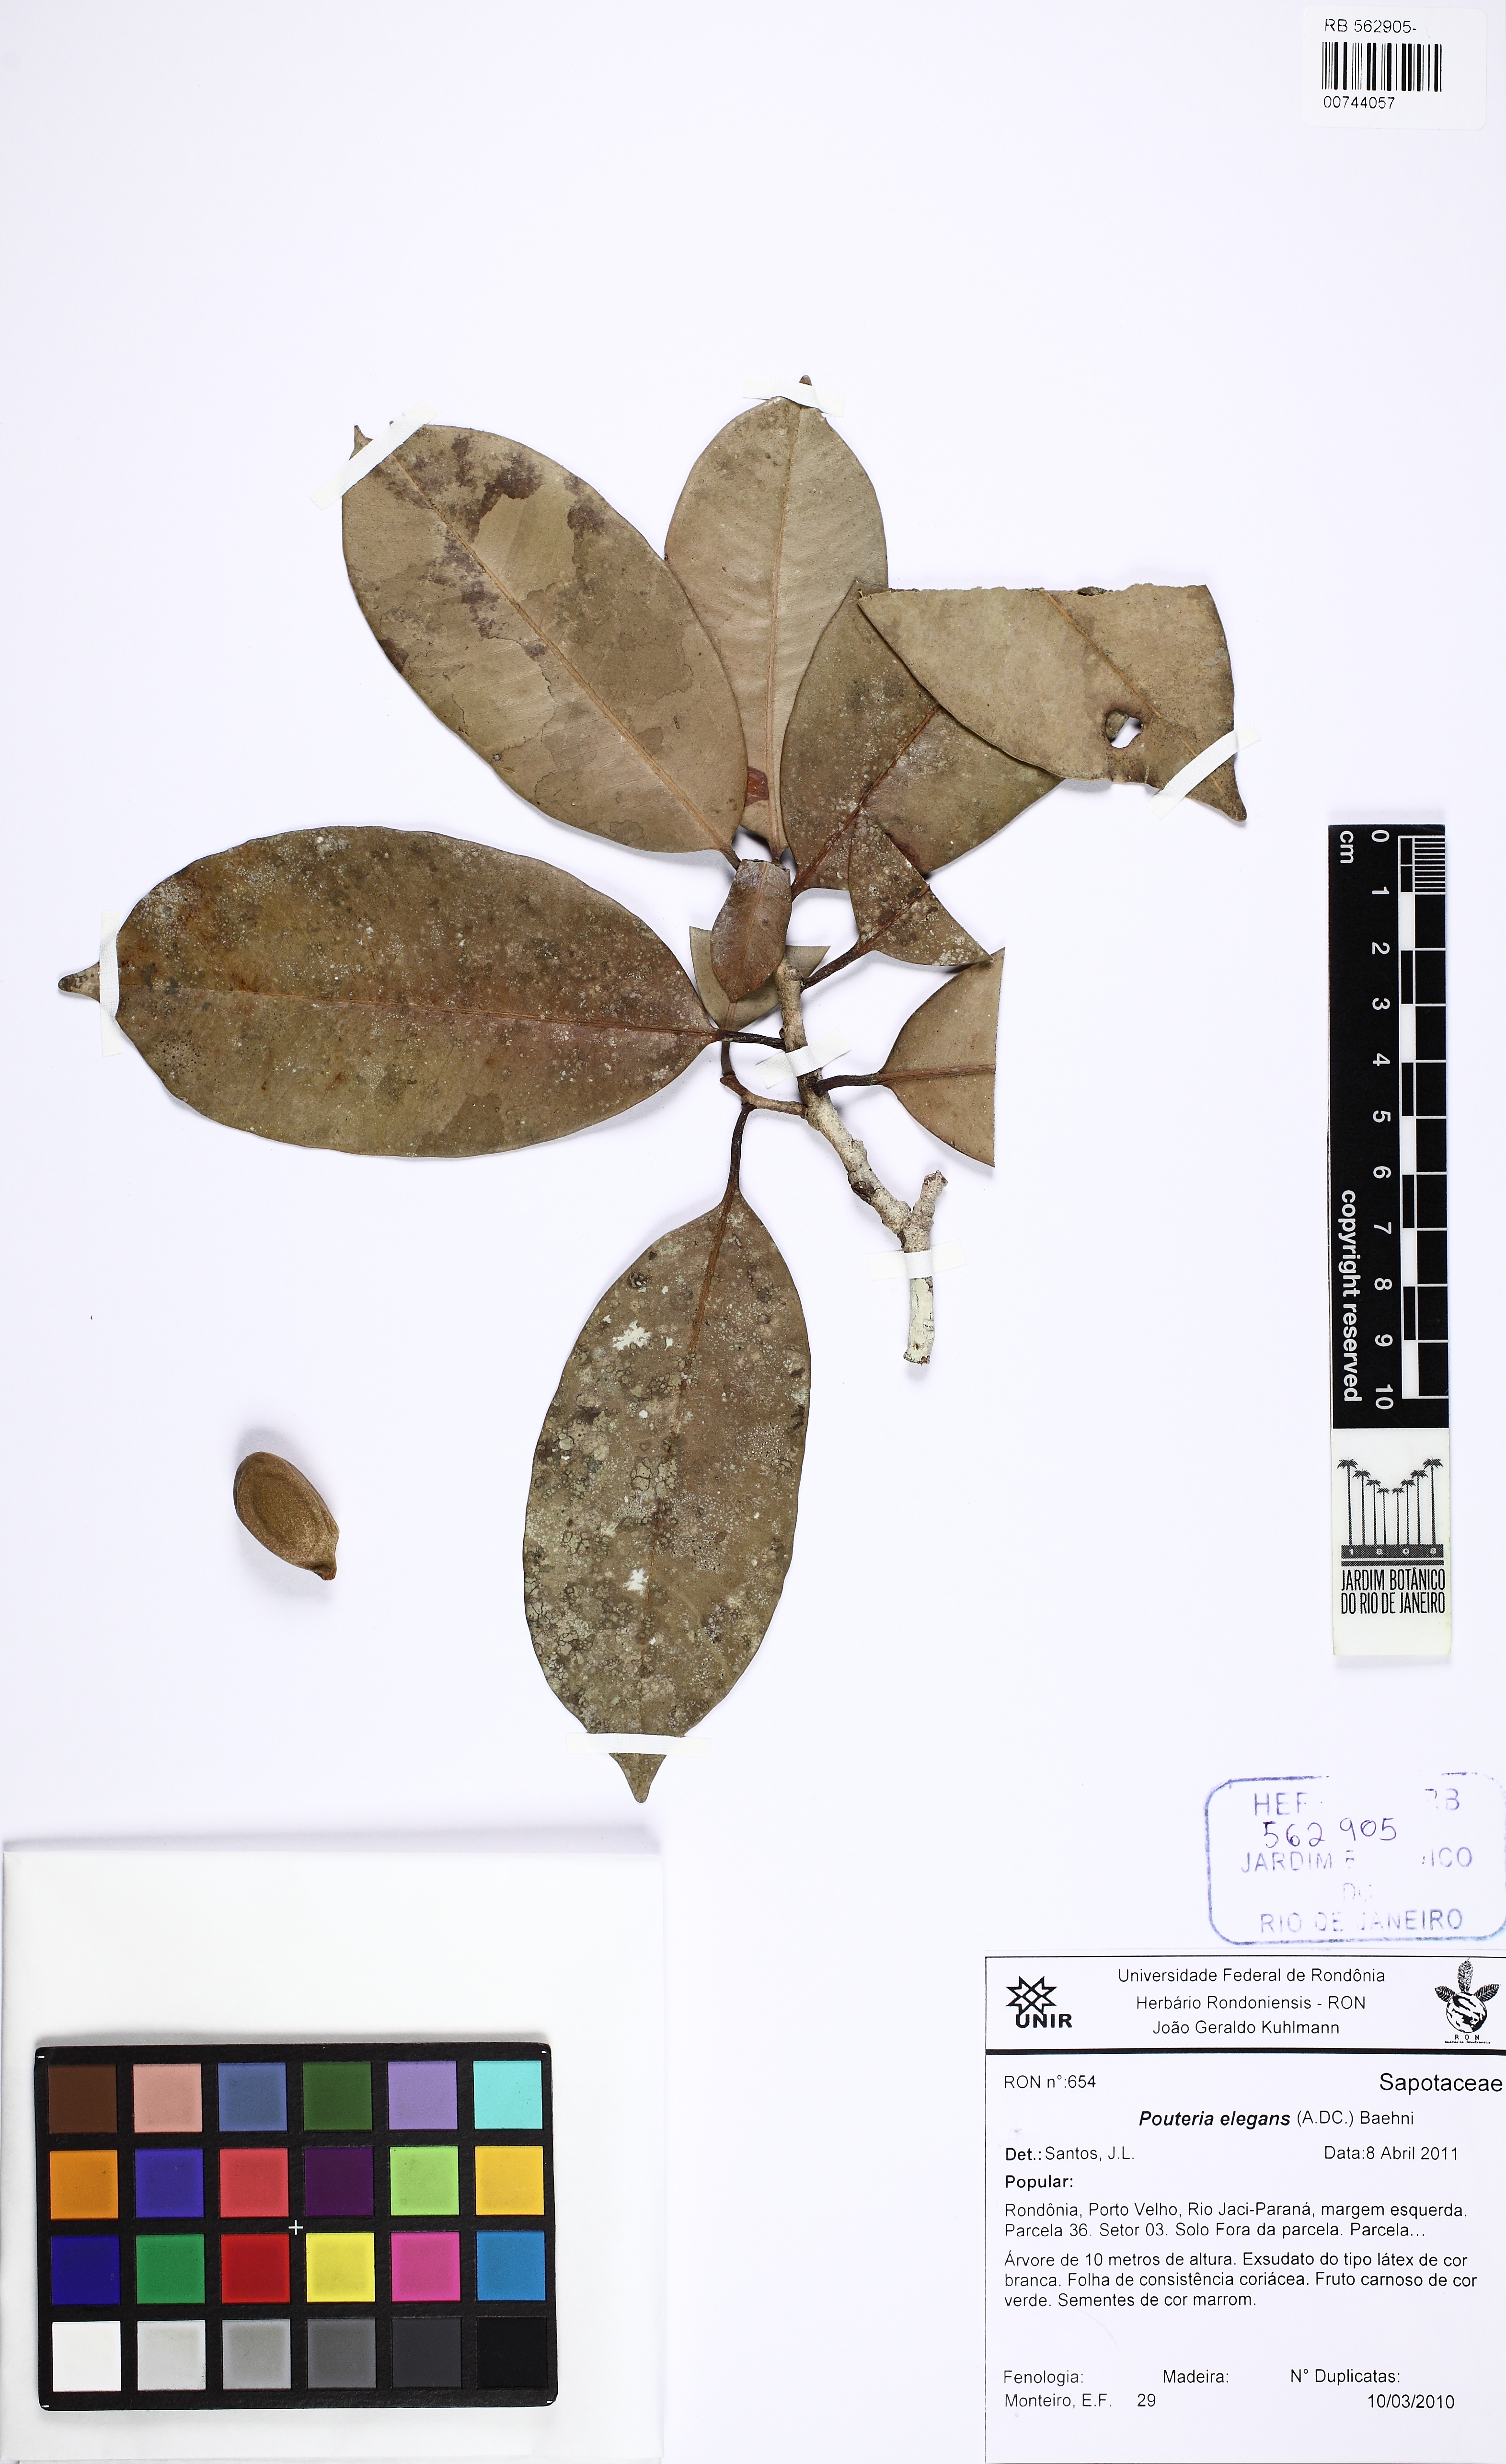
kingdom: Plantae
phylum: Tracheophyta
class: Magnoliopsida
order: Ericales
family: Sapotaceae
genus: Pouteria
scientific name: Pouteria elegans
